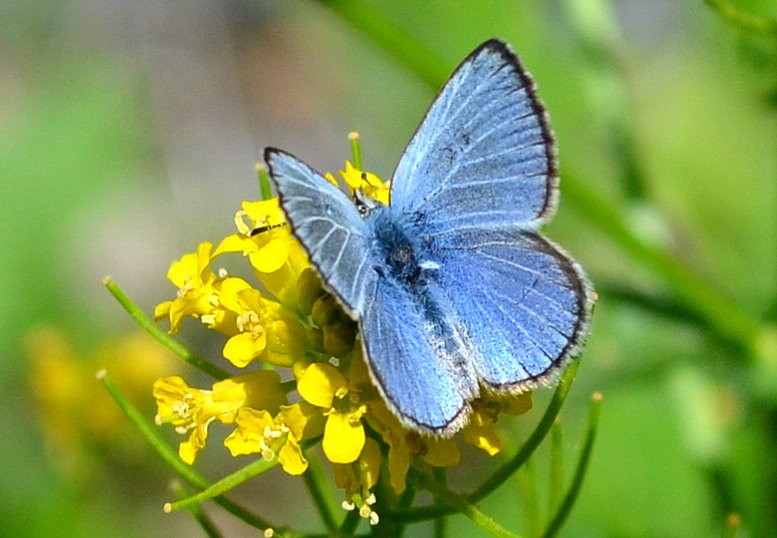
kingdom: Animalia
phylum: Arthropoda
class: Insecta
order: Lepidoptera
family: Lycaenidae
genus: Glaucopsyche
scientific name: Glaucopsyche lygdamus
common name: Silvery Blue
